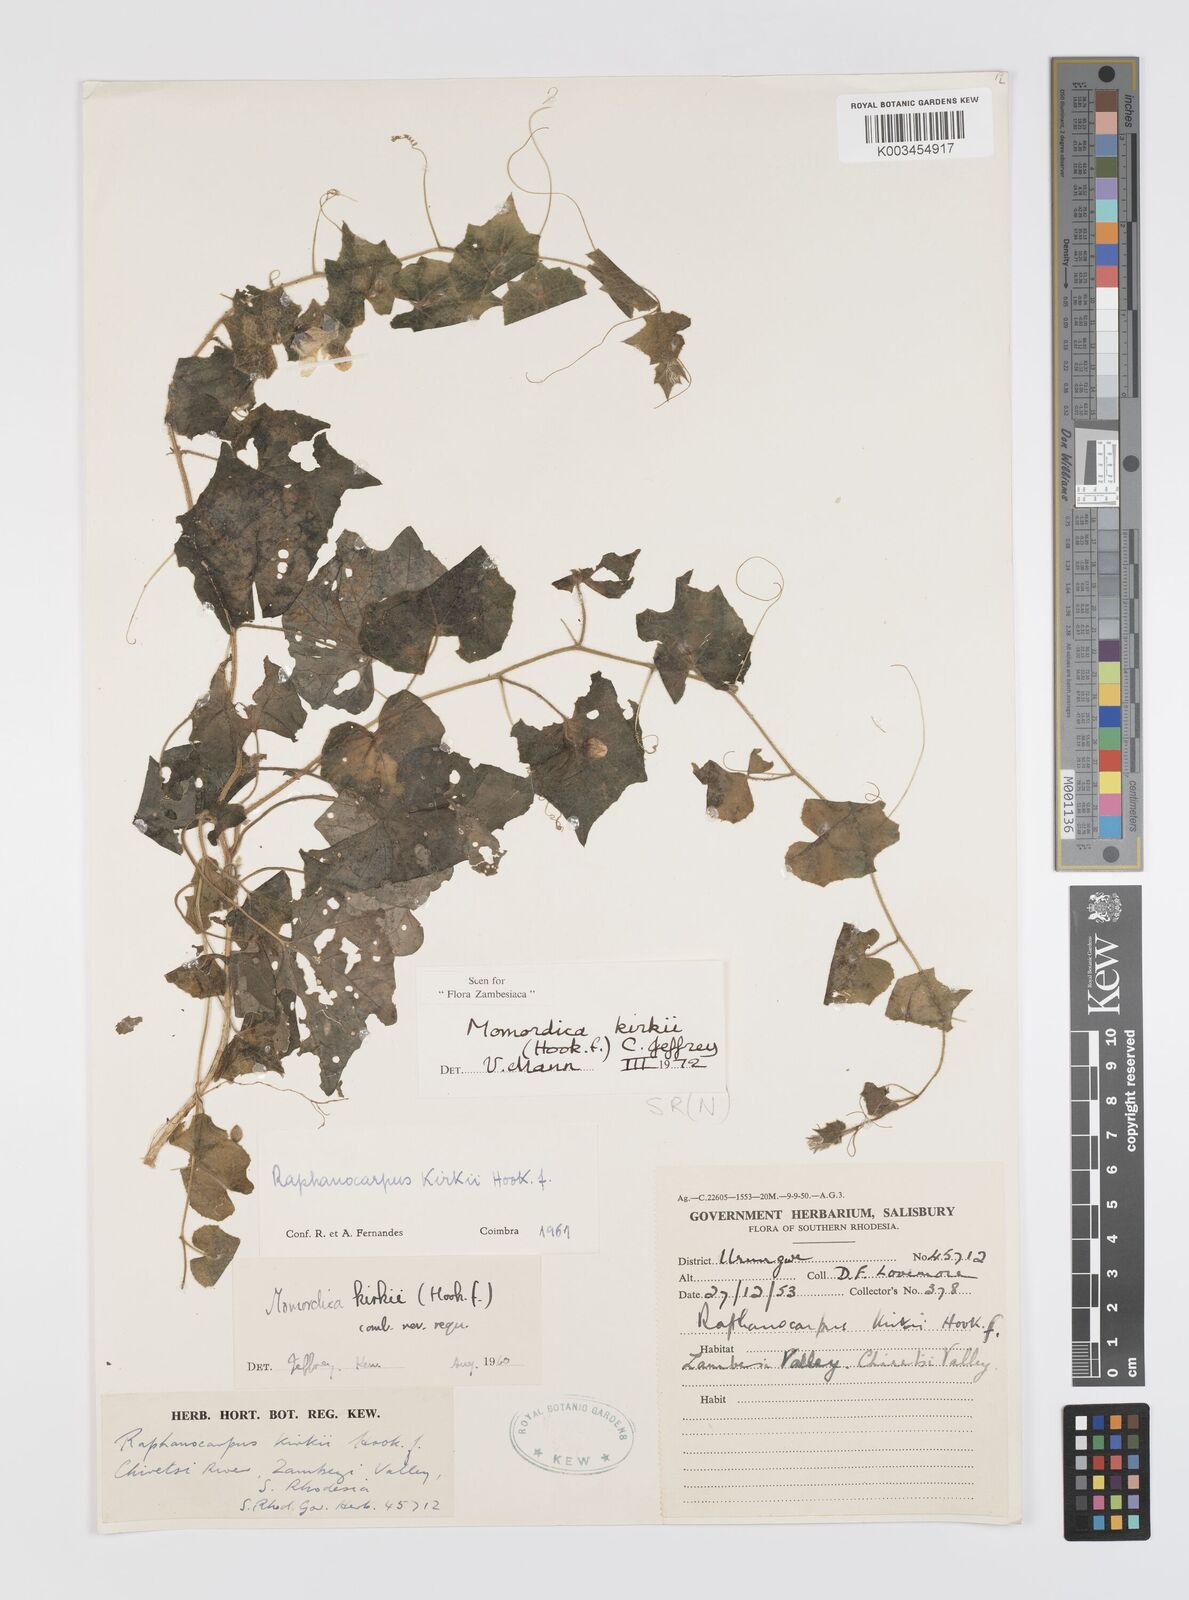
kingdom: Plantae
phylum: Tracheophyta
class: Magnoliopsida
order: Cucurbitales
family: Cucurbitaceae
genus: Momordica
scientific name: Momordica kirkii
